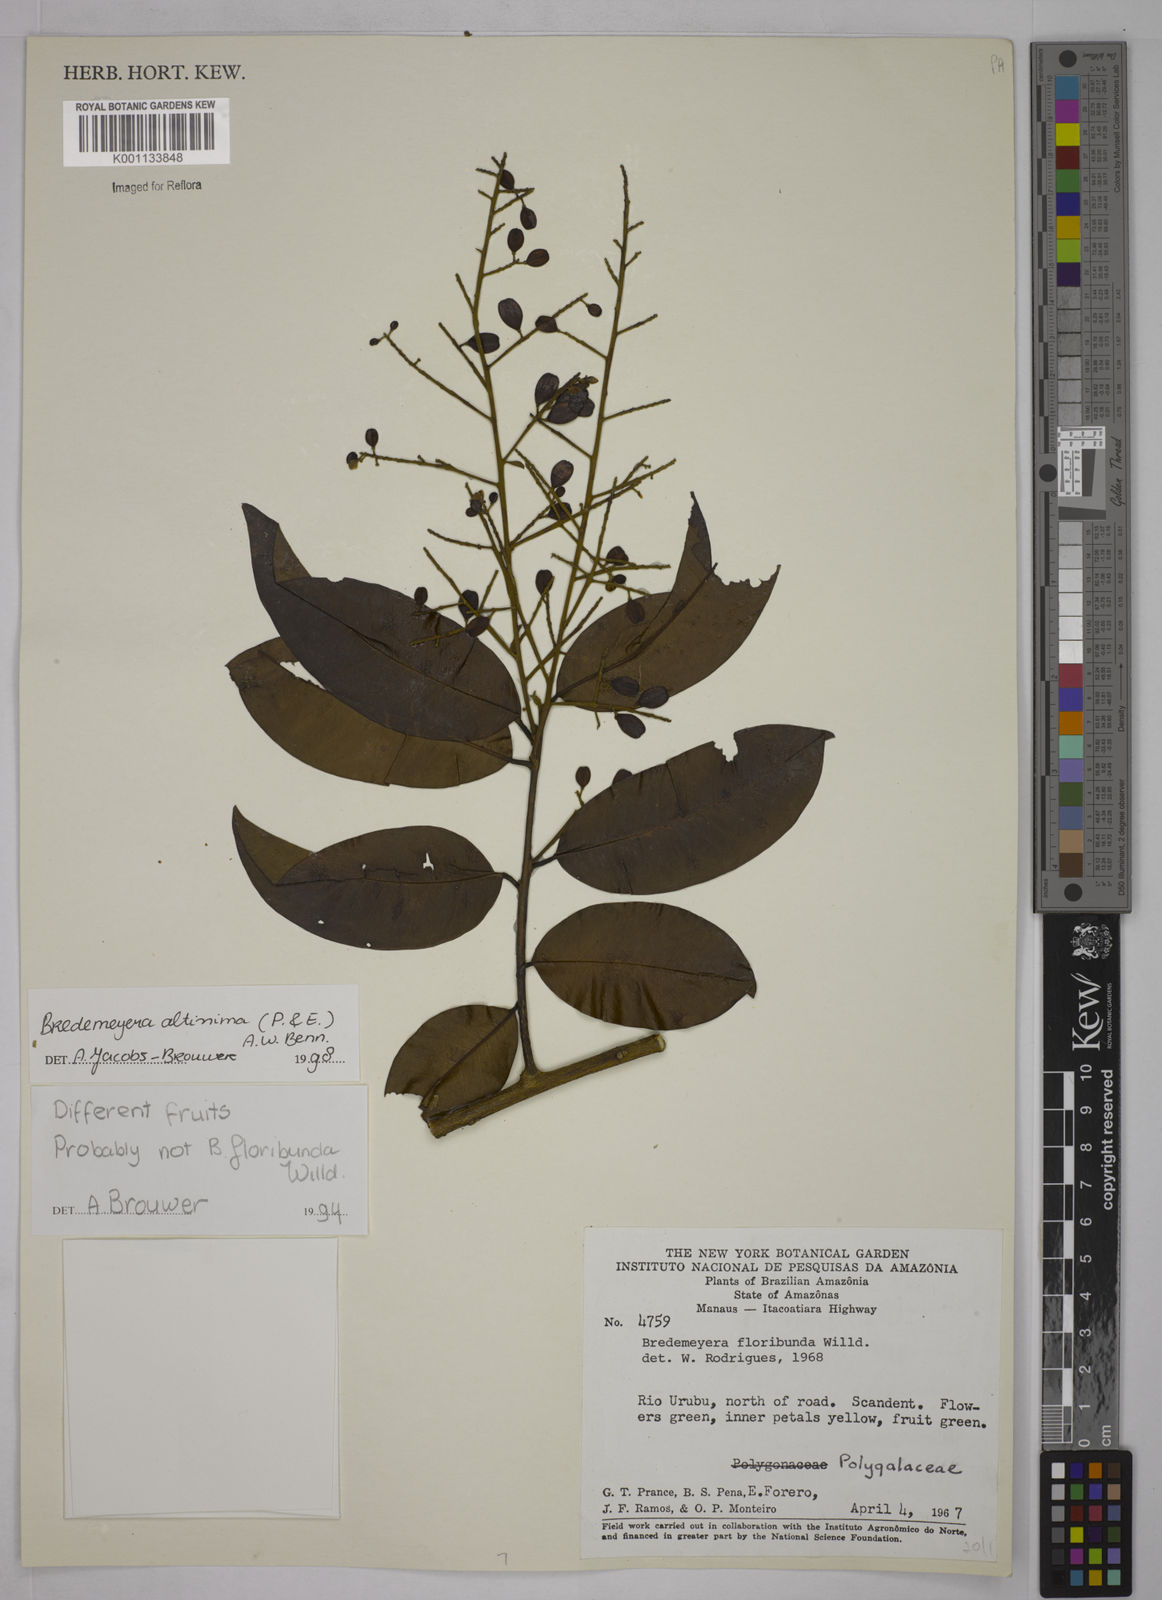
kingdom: Plantae
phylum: Tracheophyta
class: Magnoliopsida
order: Fabales
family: Polygalaceae
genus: Bredemeyera
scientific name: Bredemeyera divaricata
